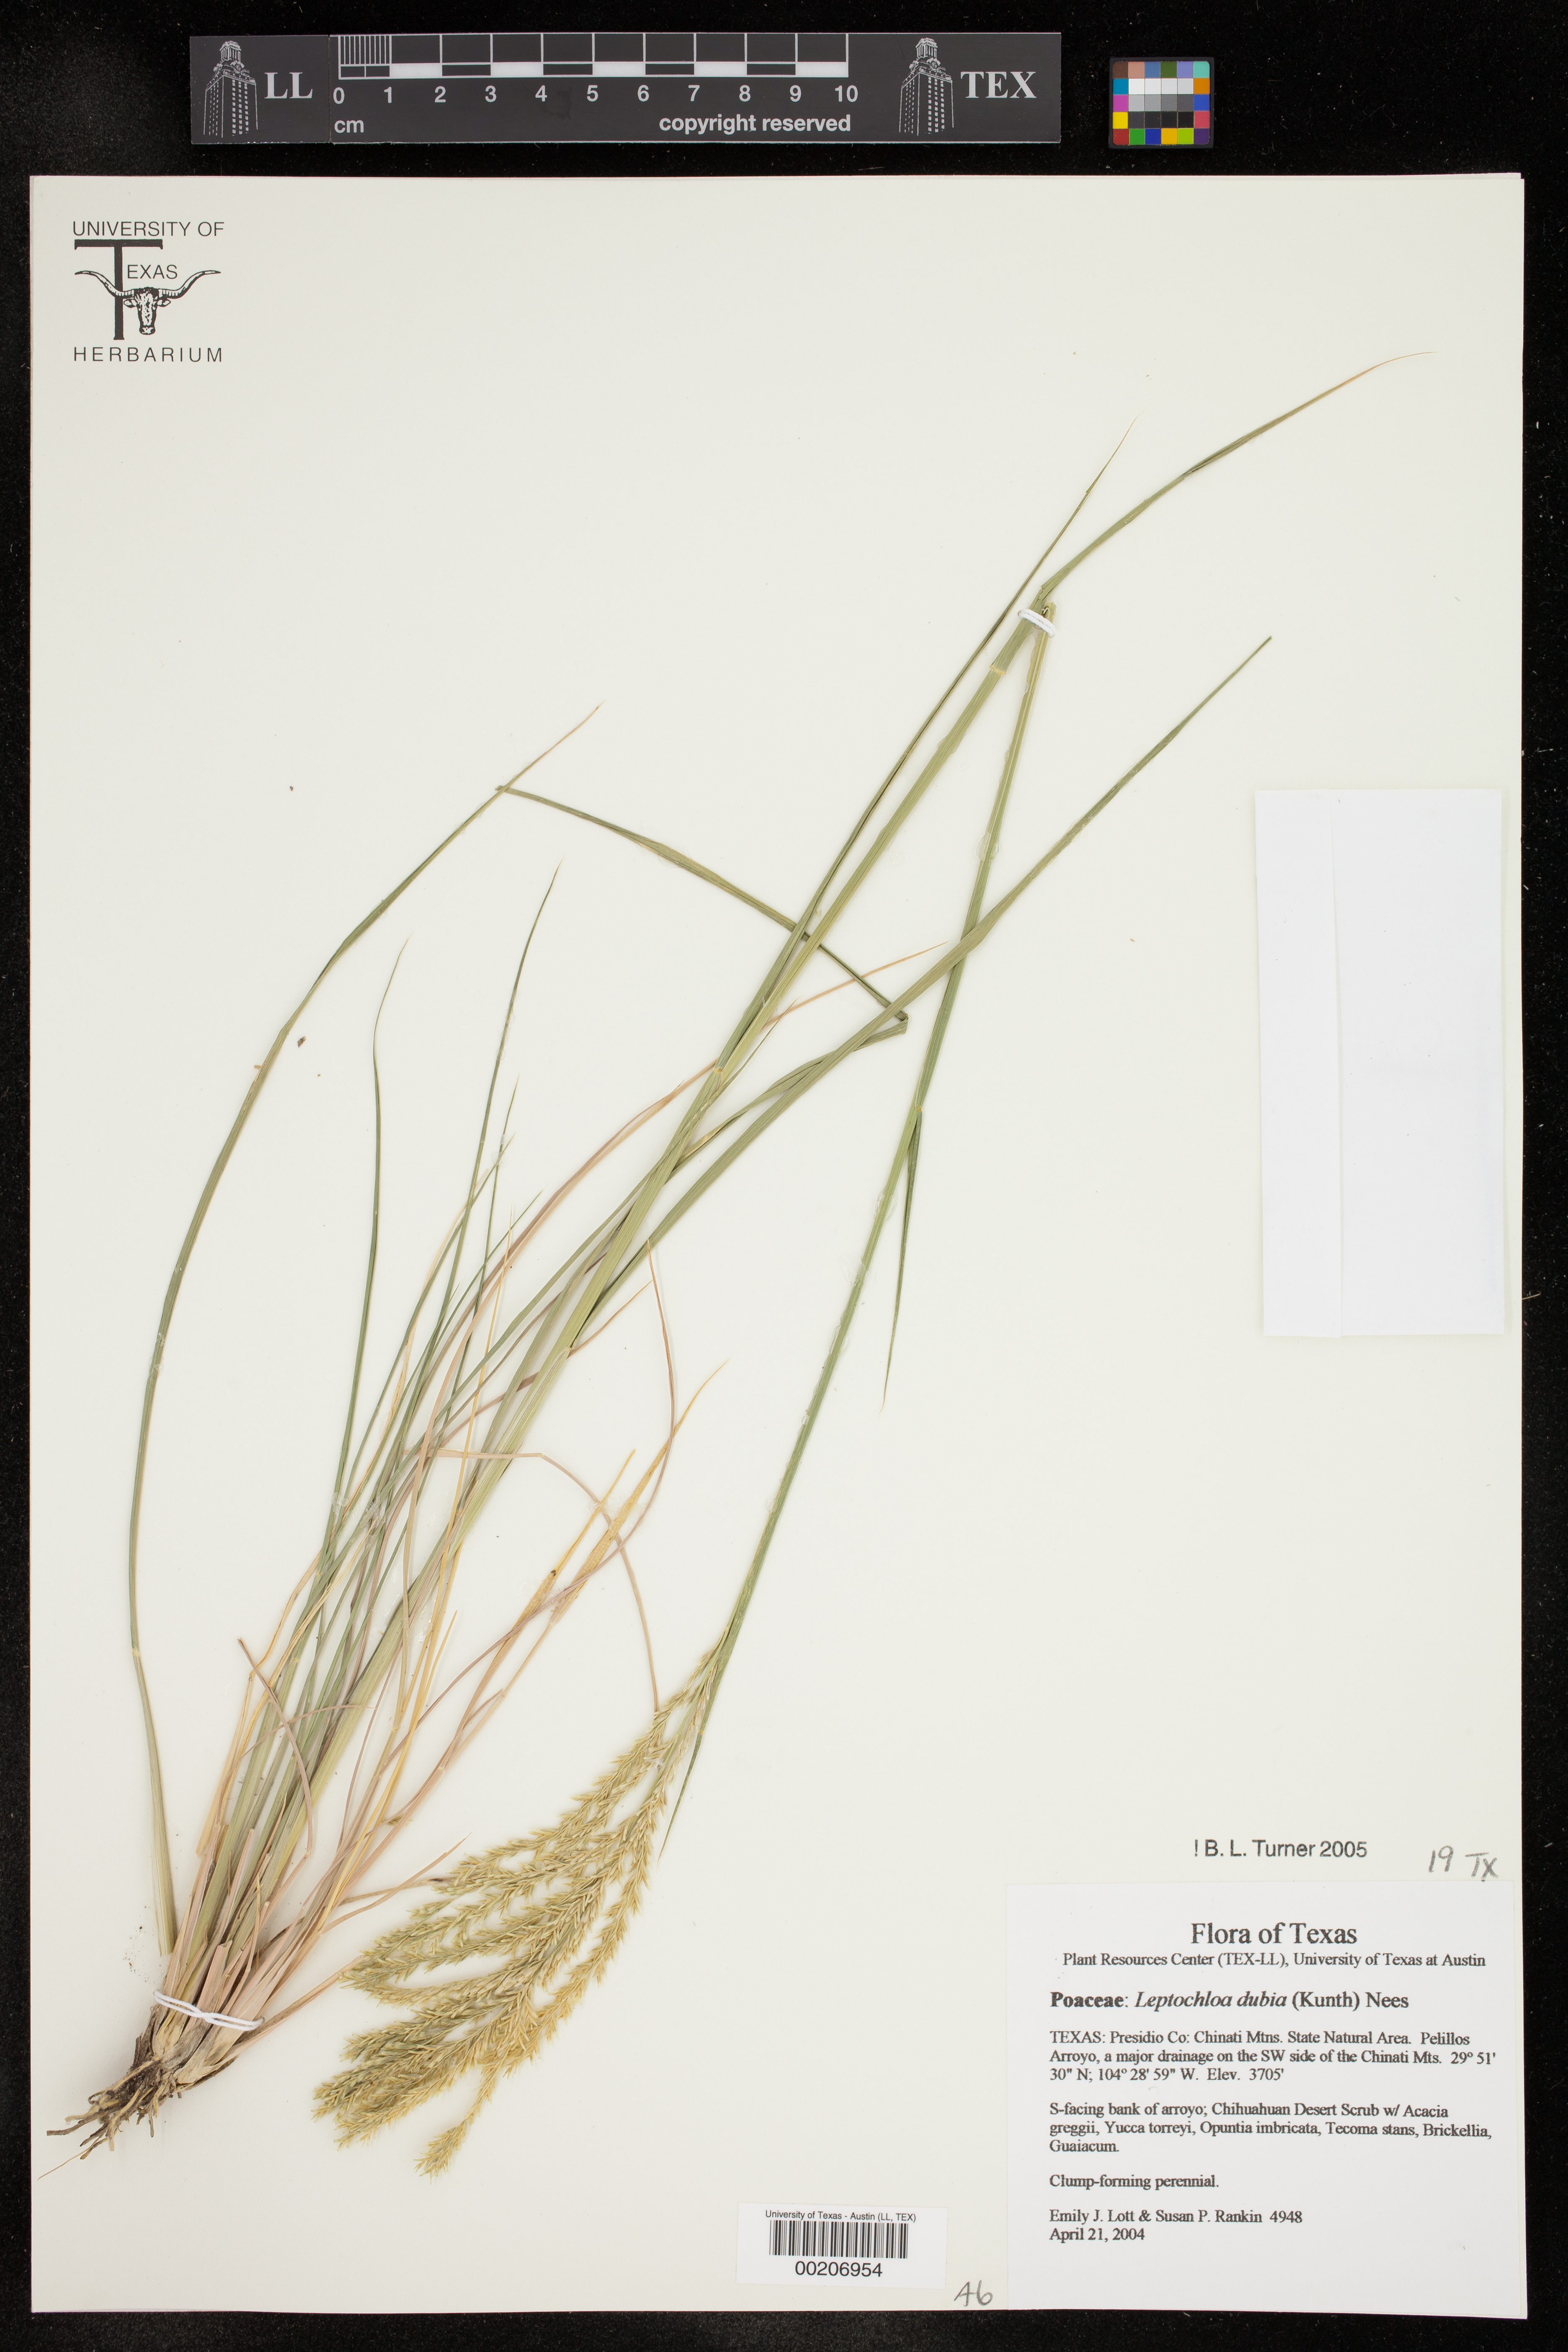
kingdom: Plantae
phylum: Tracheophyta
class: Liliopsida
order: Poales
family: Poaceae
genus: Disakisperma
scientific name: Disakisperma dubium
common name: Green sprangletop
